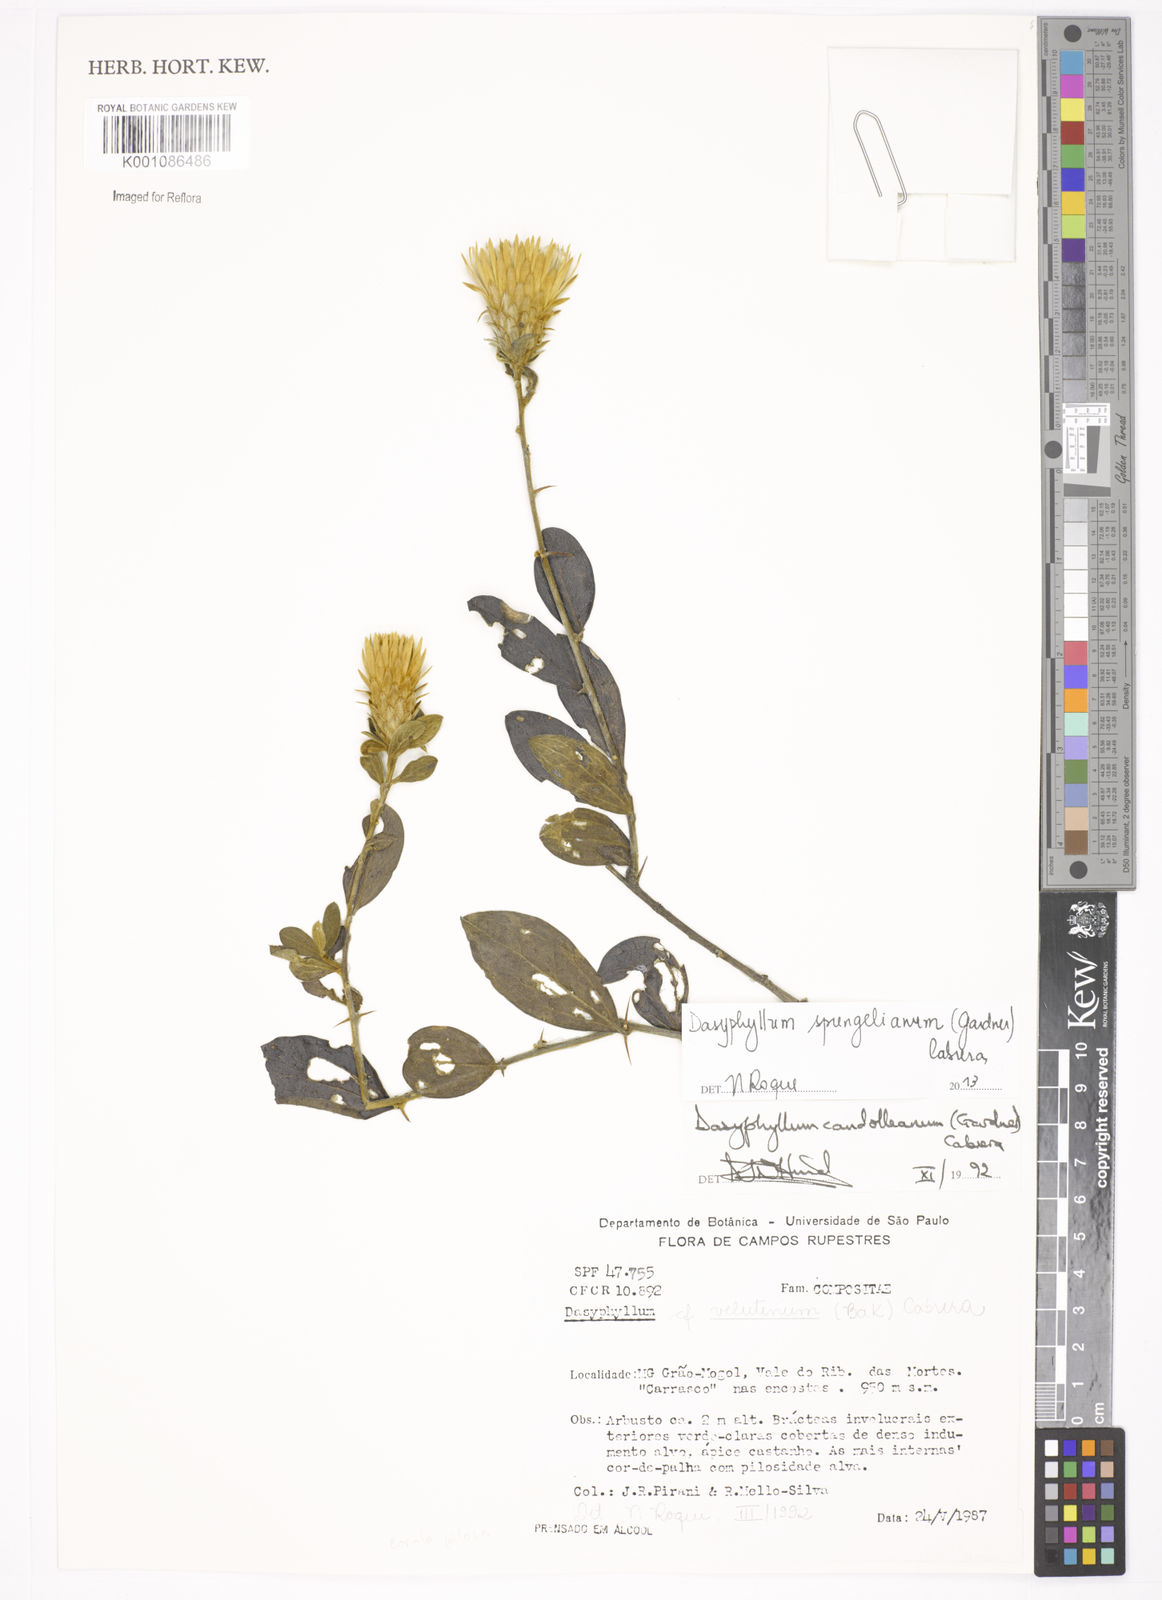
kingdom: Plantae
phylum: Tracheophyta
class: Magnoliopsida
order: Asterales
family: Asteraceae
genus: Dasyphyllum
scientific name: Dasyphyllum sprengelianum
